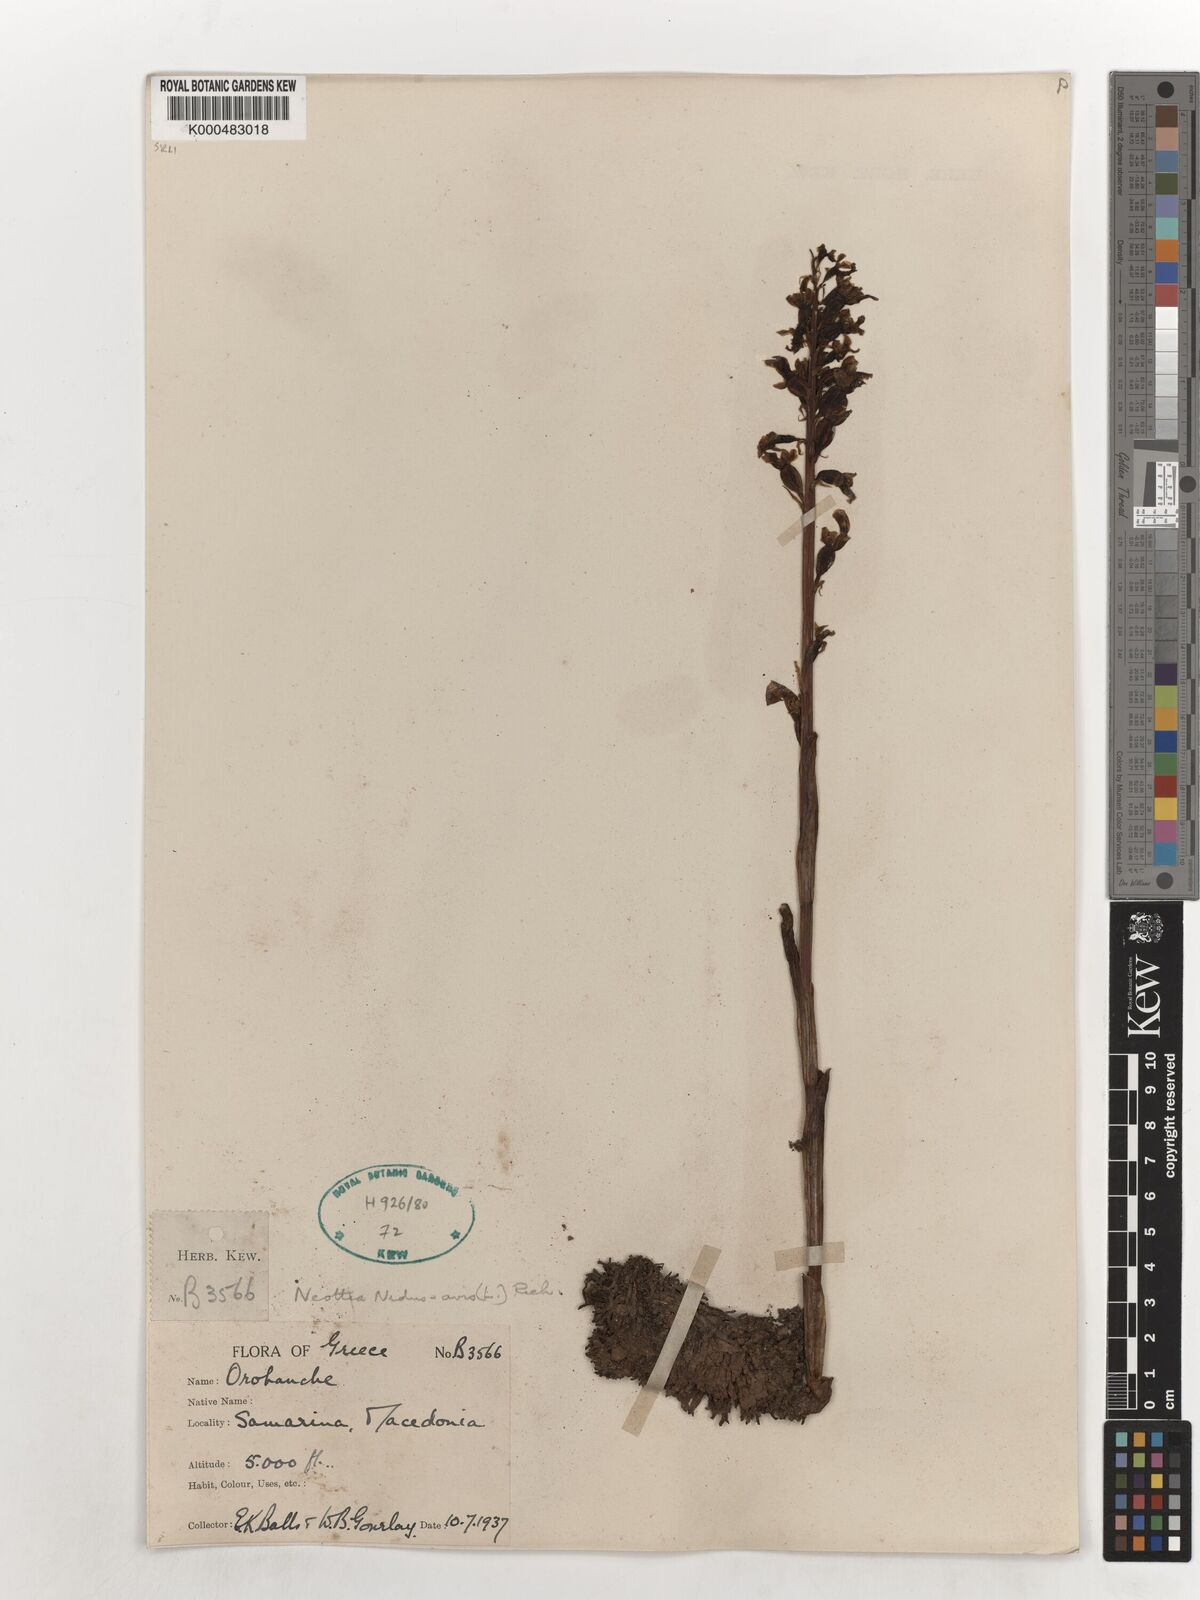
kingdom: Plantae
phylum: Tracheophyta
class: Liliopsida
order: Asparagales
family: Orchidaceae
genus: Neottia
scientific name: Neottia nidus-avis
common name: Bird's-nest orchid
